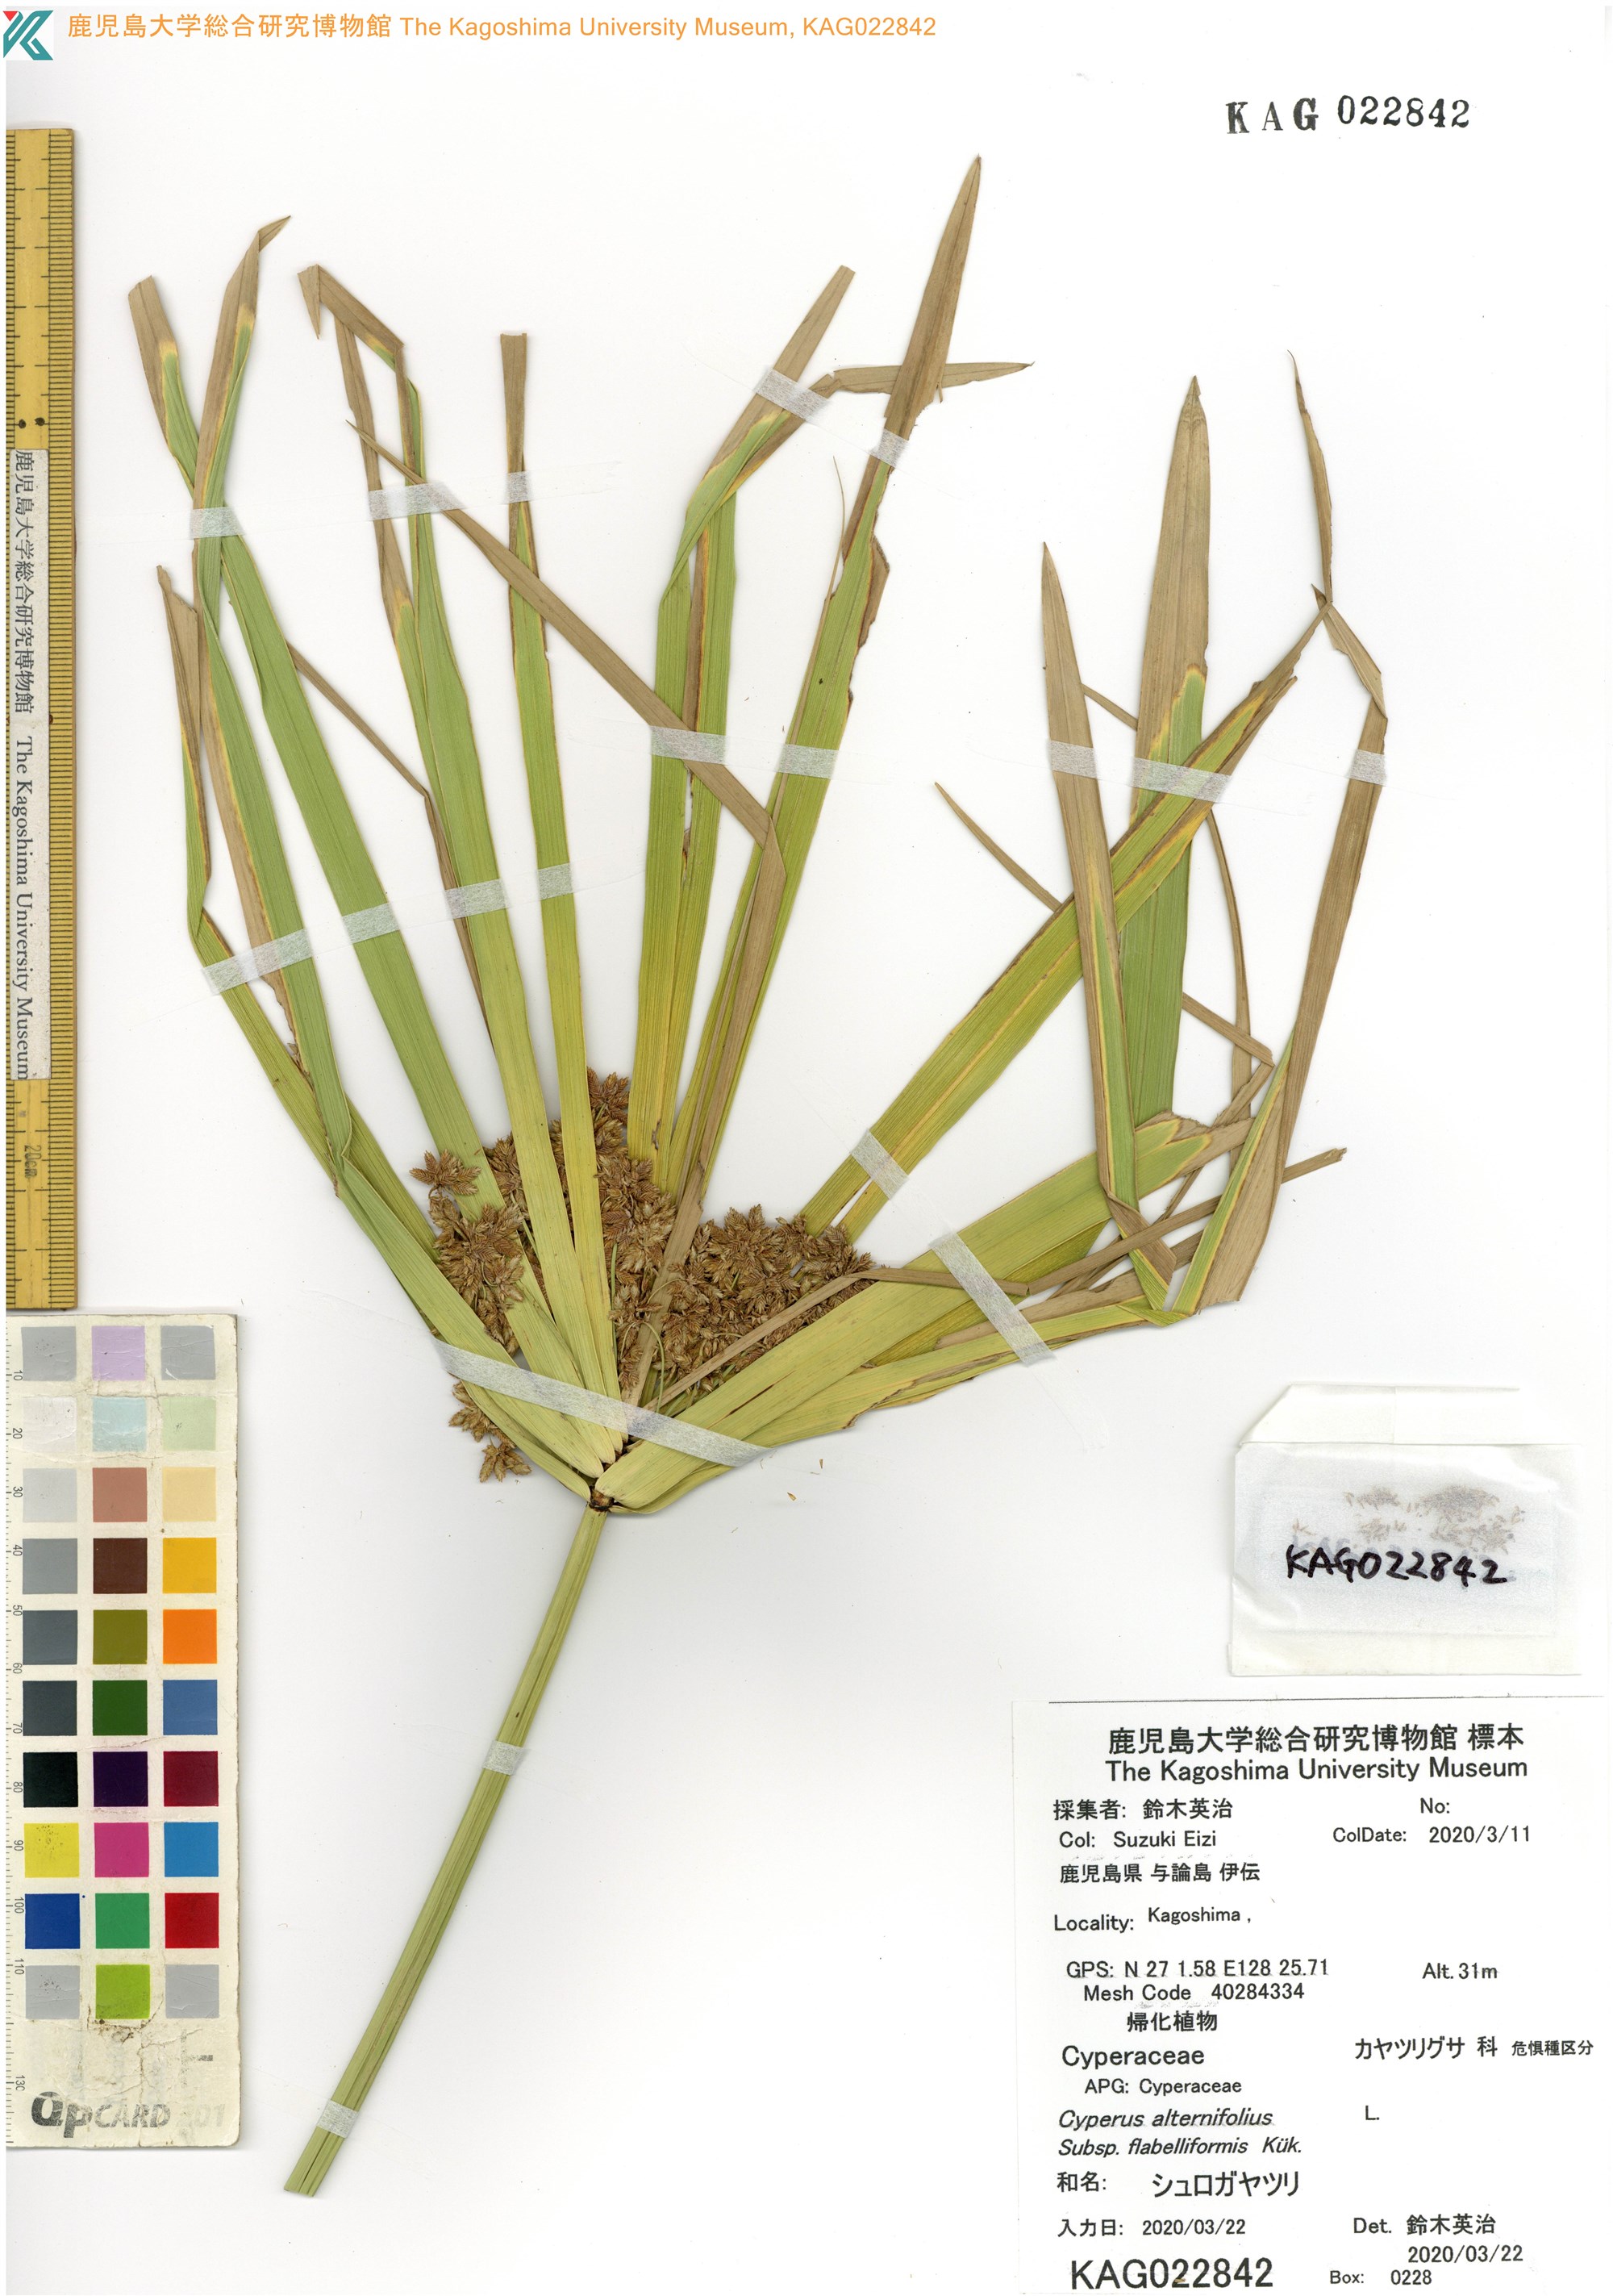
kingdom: Plantae
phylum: Tracheophyta
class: Liliopsida
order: Poales
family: Cyperaceae
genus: Cyperus
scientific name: Cyperus alternifolius
